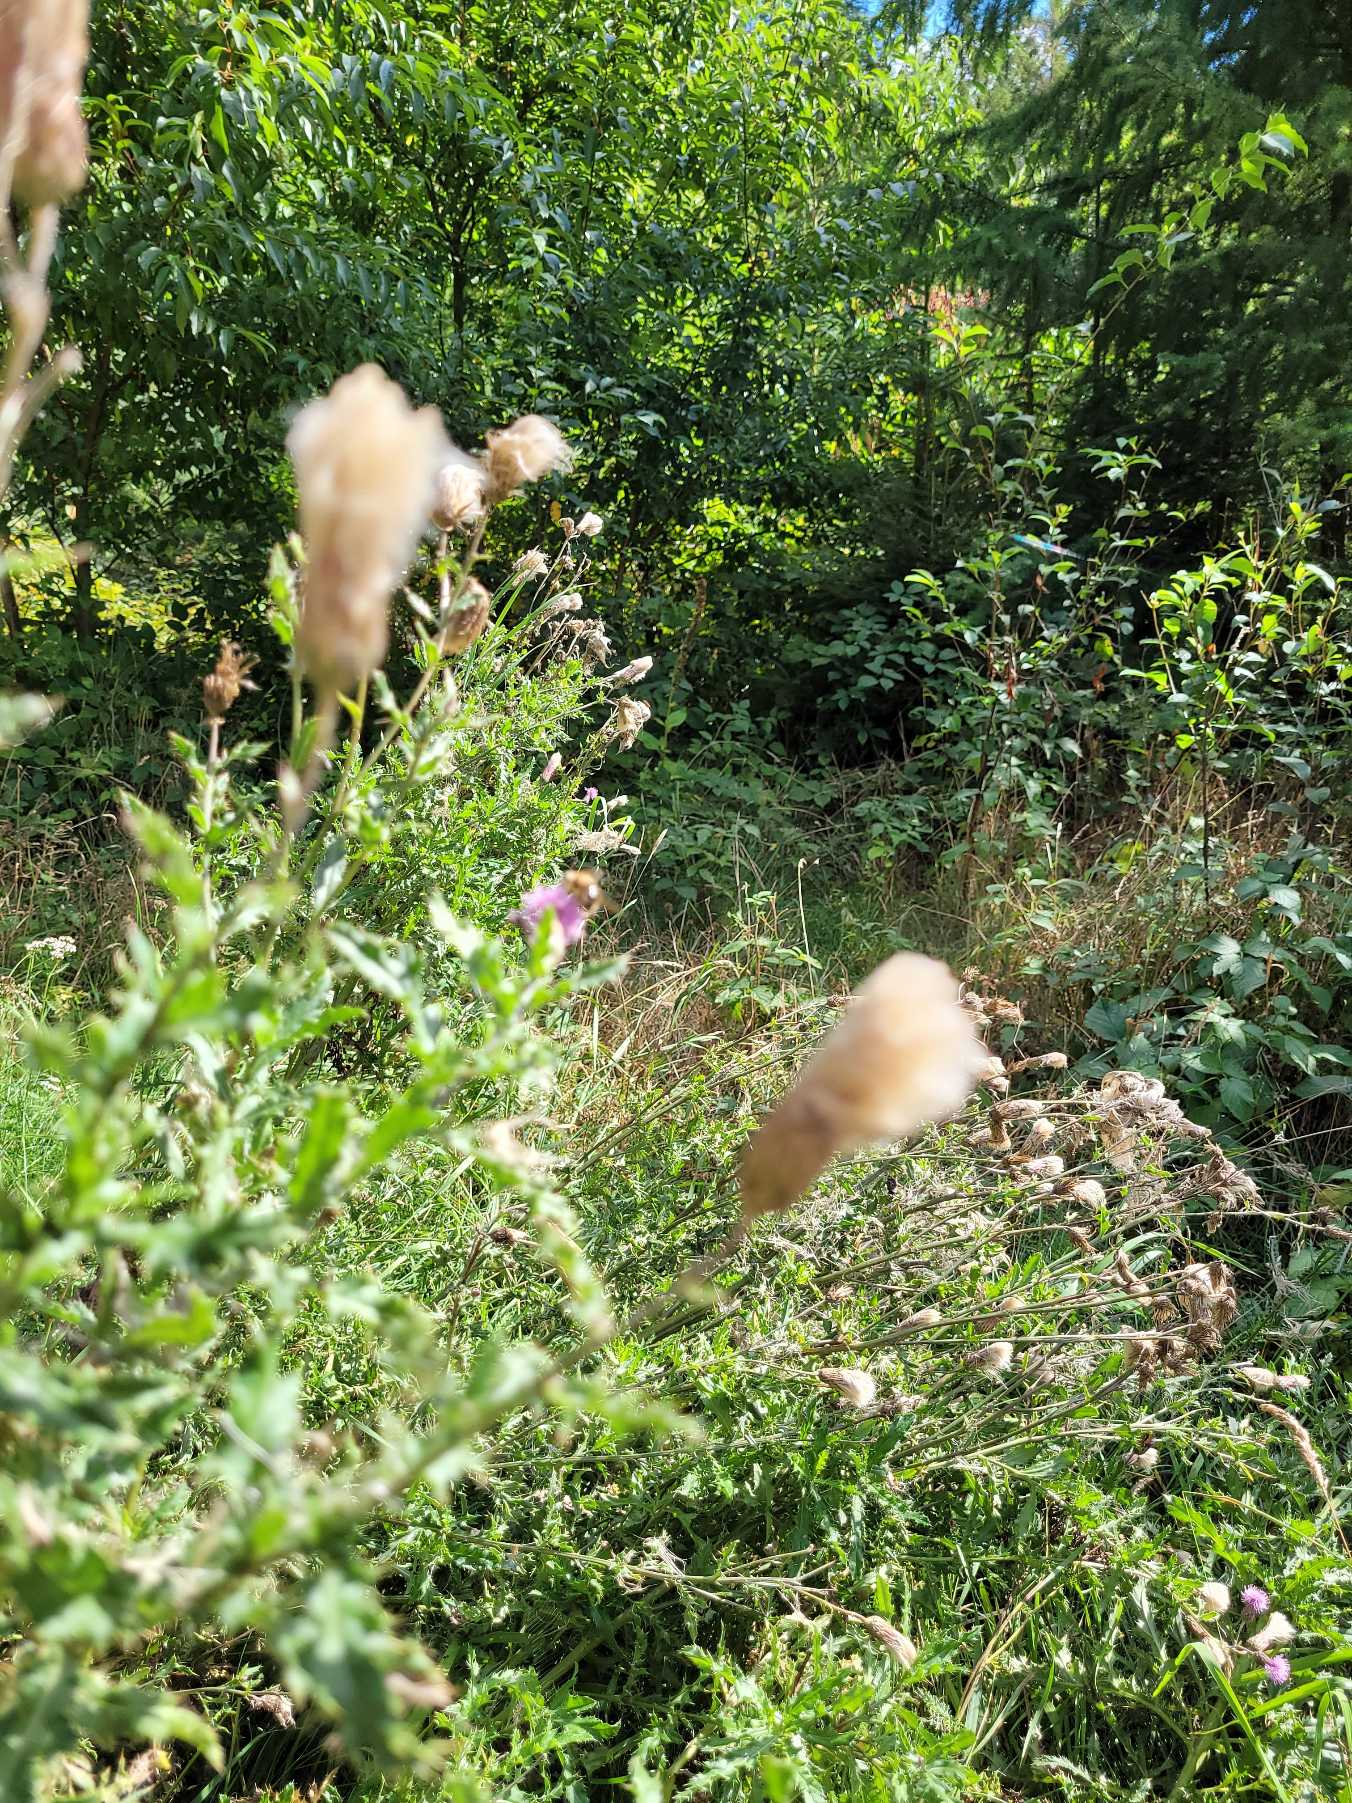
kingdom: Plantae
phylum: Tracheophyta
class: Magnoliopsida
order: Asterales
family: Asteraceae
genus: Cirsium
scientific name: Cirsium arvense
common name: Ager-tidsel
